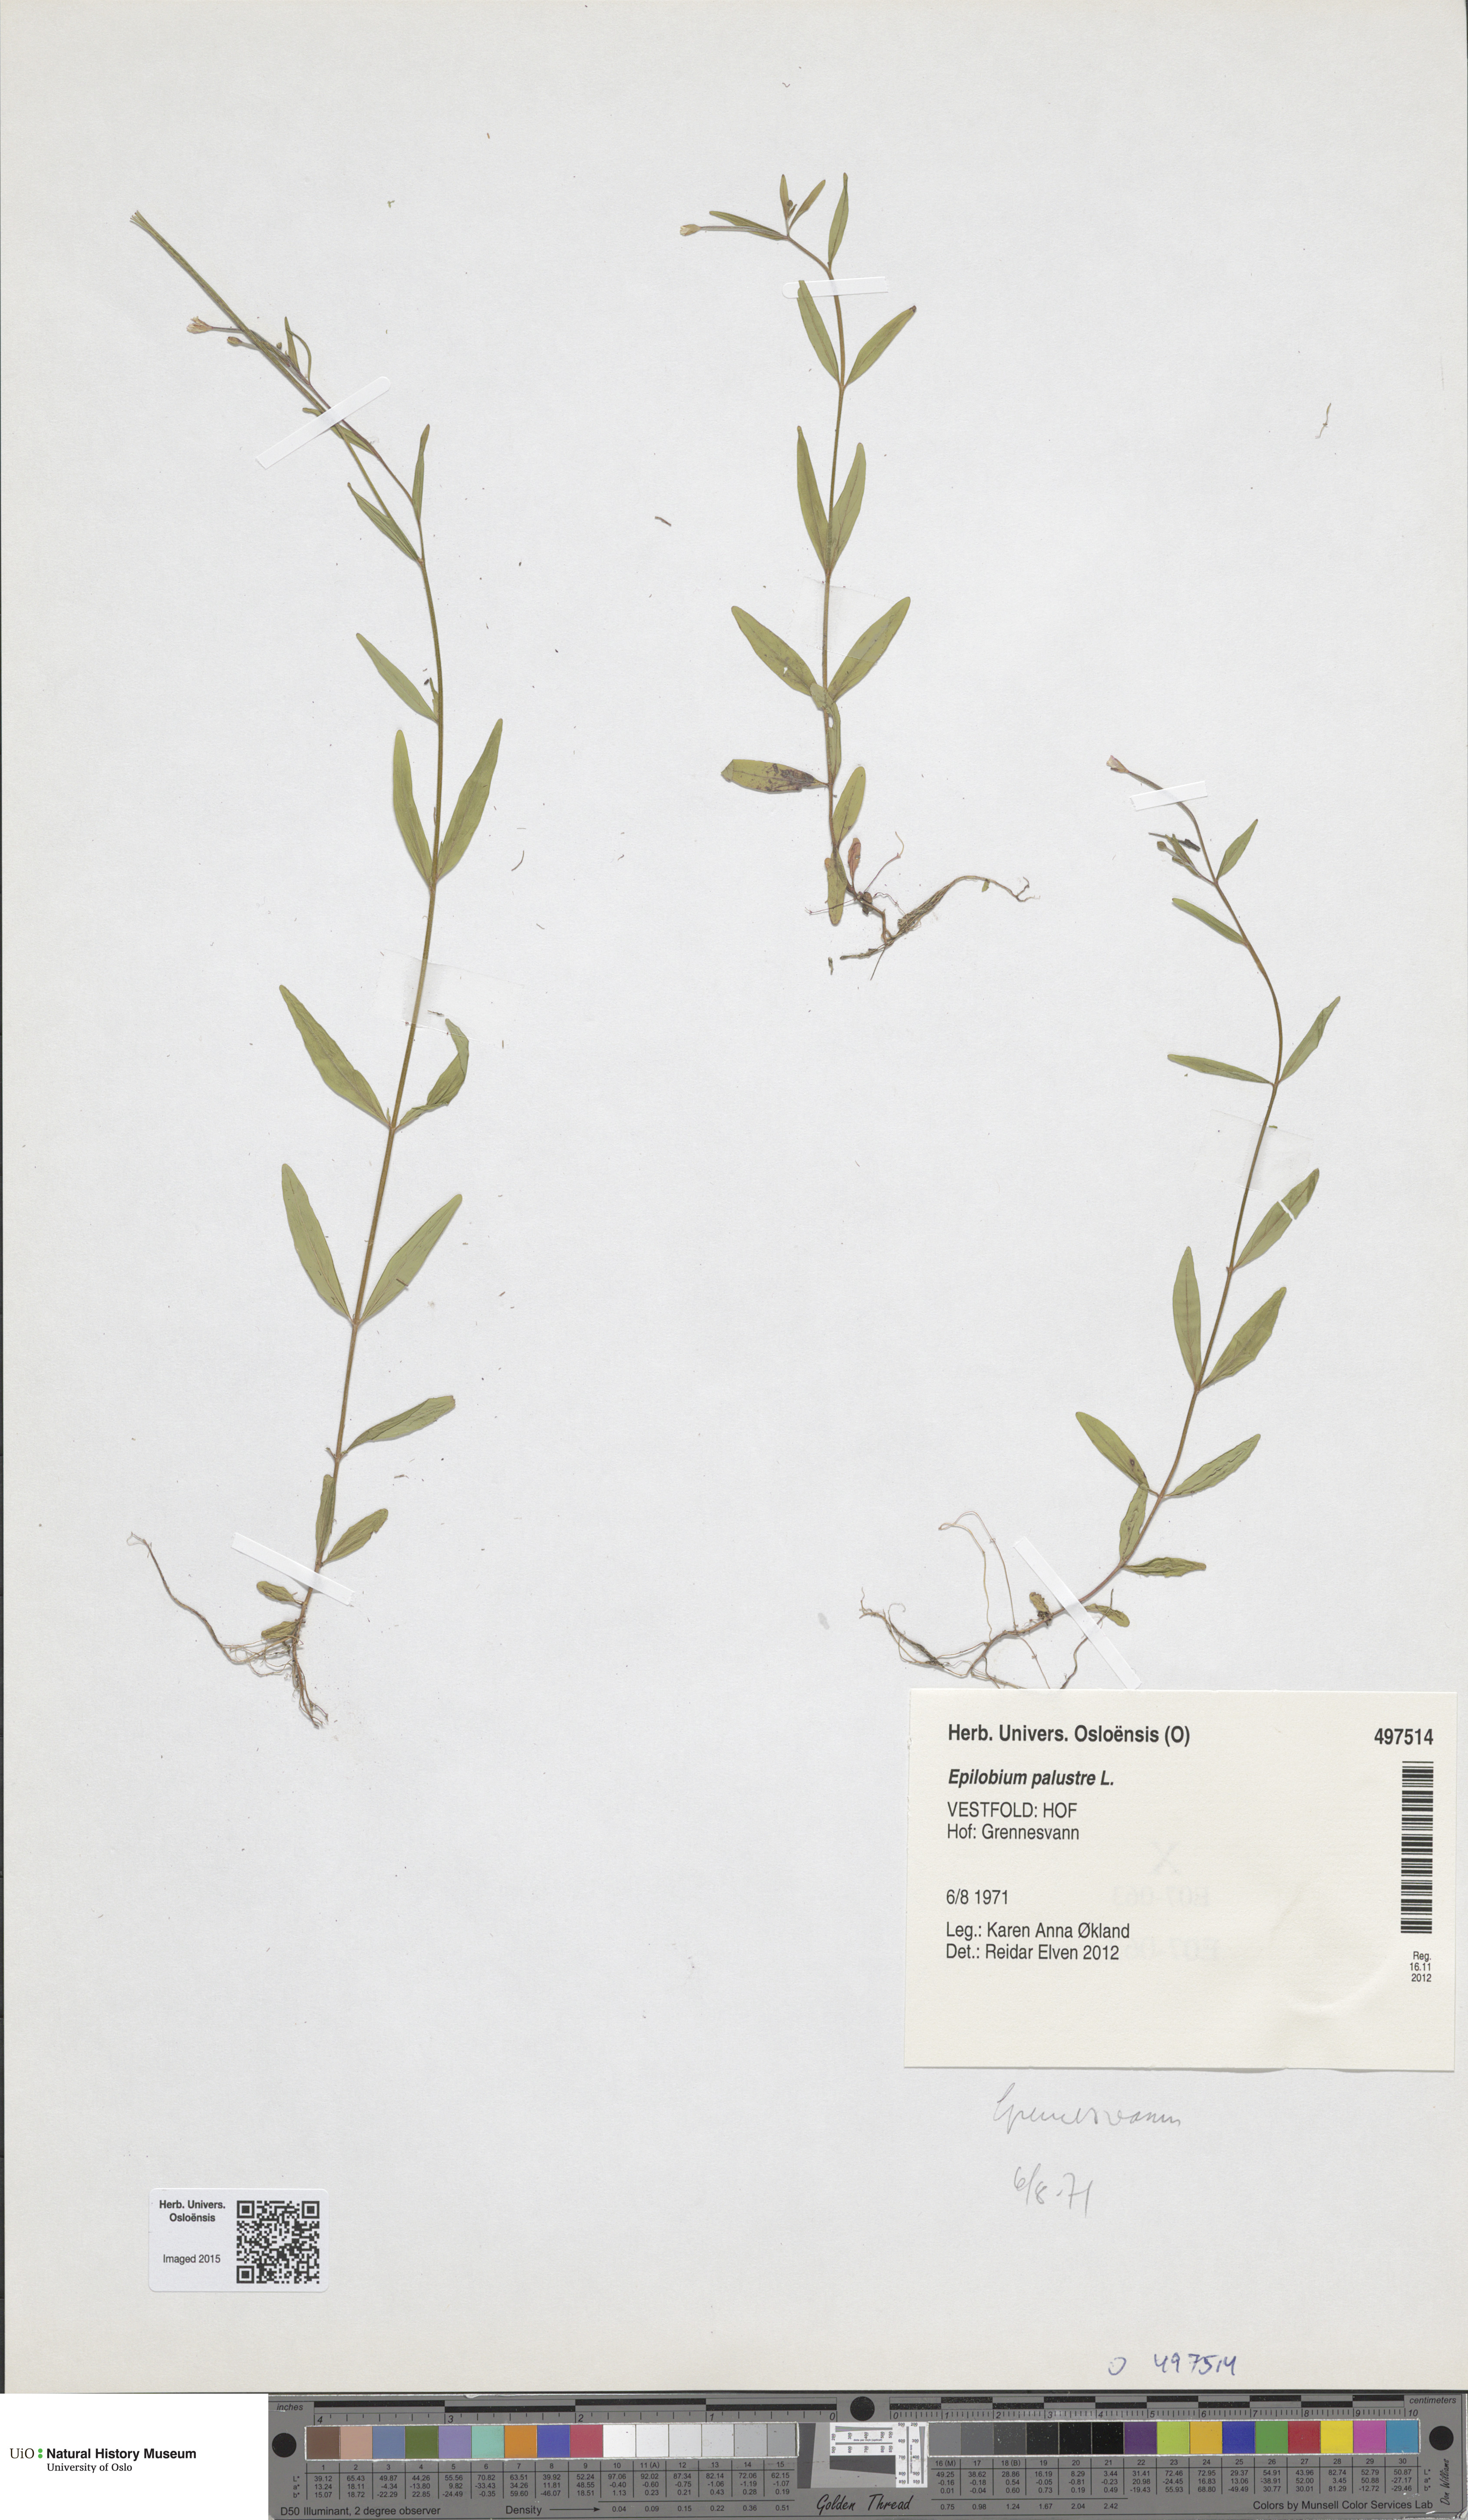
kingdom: Plantae
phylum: Tracheophyta
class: Magnoliopsida
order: Myrtales
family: Onagraceae
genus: Epilobium
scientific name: Epilobium palustre
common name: Marsh willowherb
